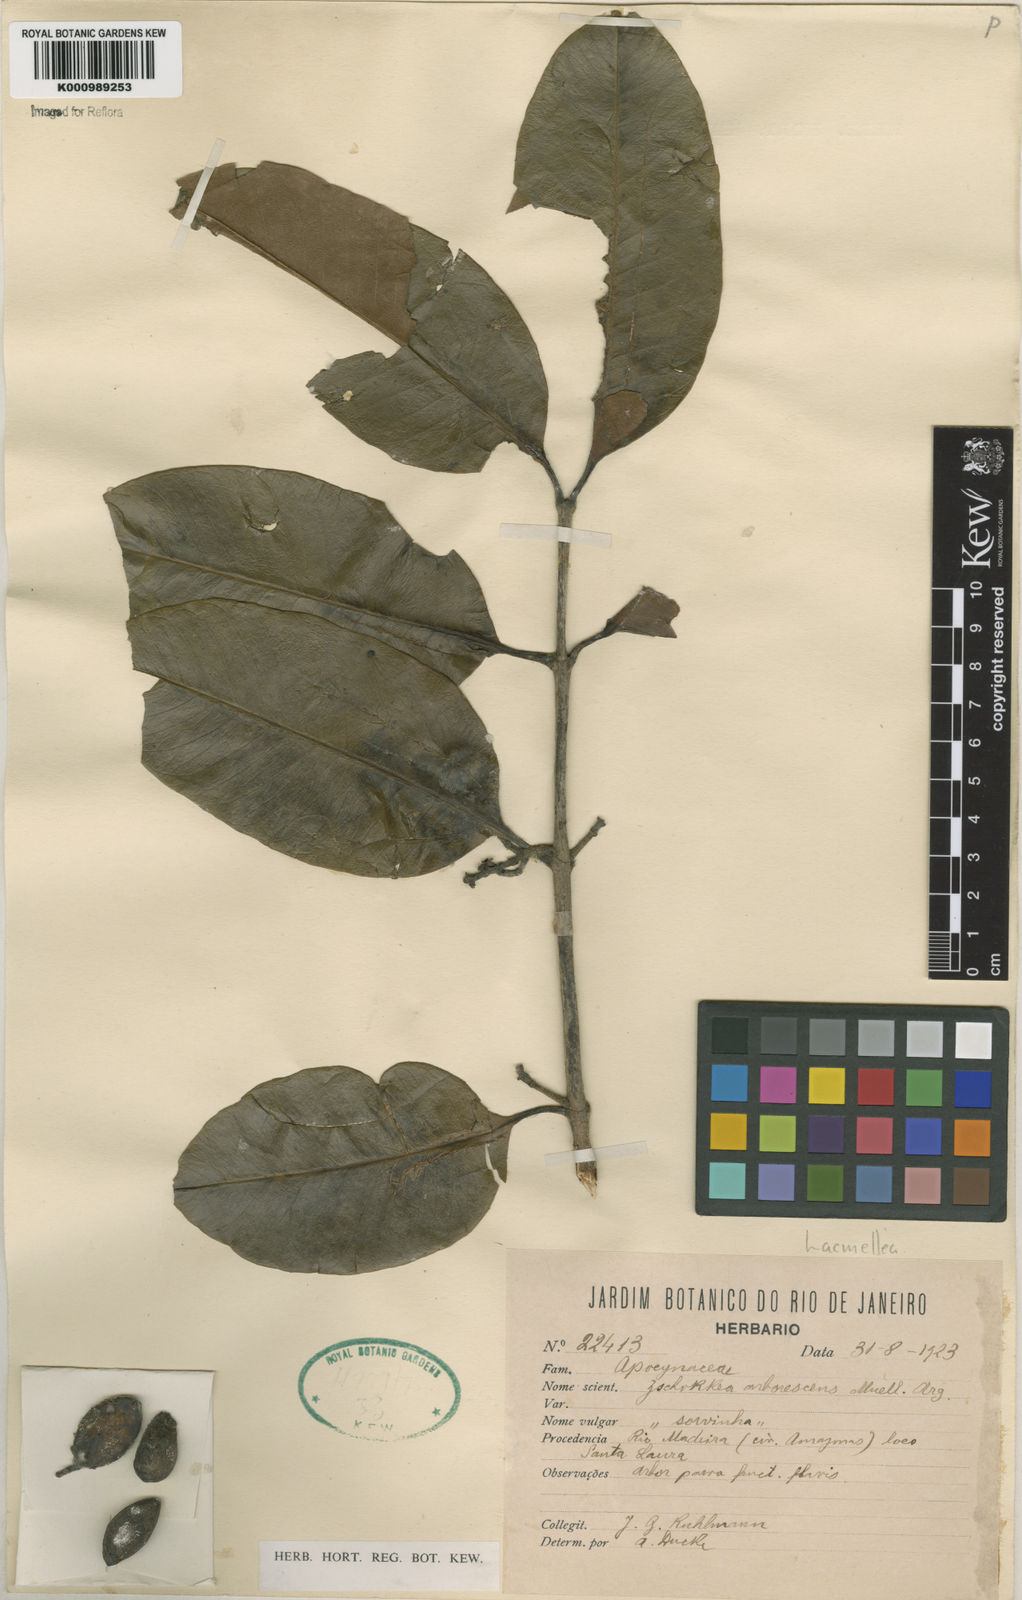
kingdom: Plantae
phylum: Tracheophyta
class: Magnoliopsida
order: Gentianales
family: Apocynaceae
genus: Lacmellea
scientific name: Lacmellea
